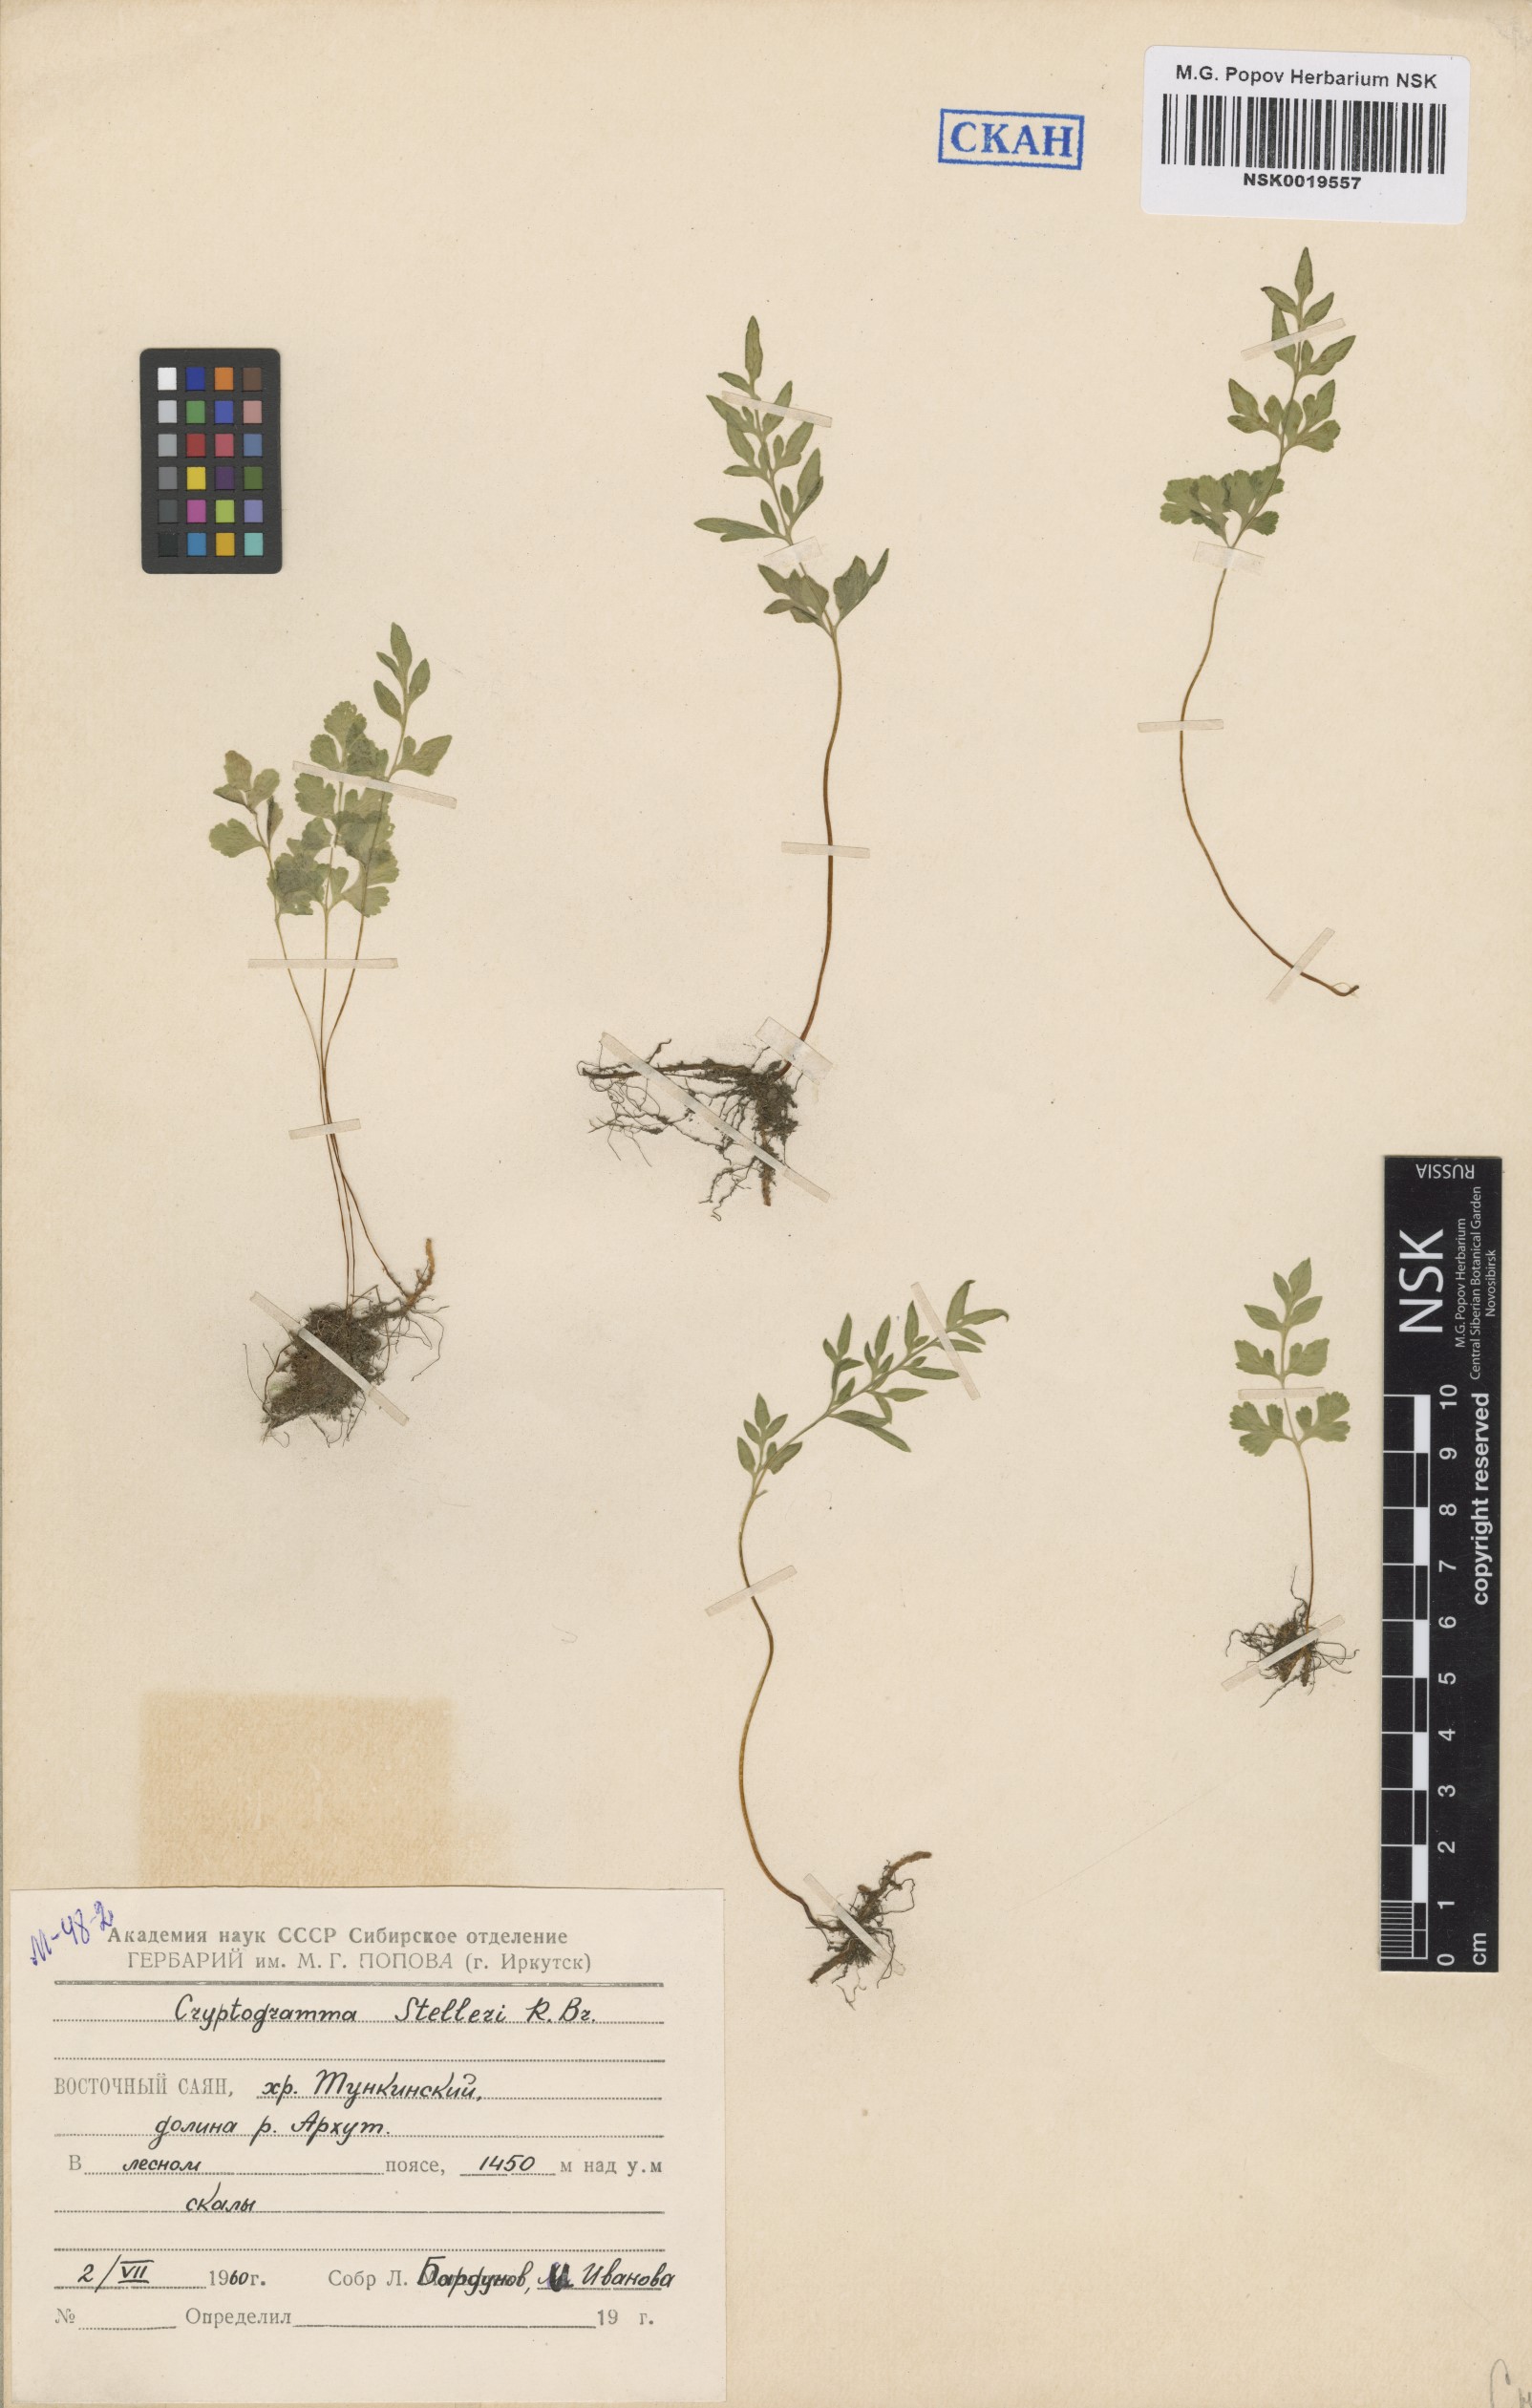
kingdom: Plantae
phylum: Tracheophyta
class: Polypodiopsida
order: Polypodiales
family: Pteridaceae
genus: Cryptogramma
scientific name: Cryptogramma stelleri
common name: Cliff-brake
